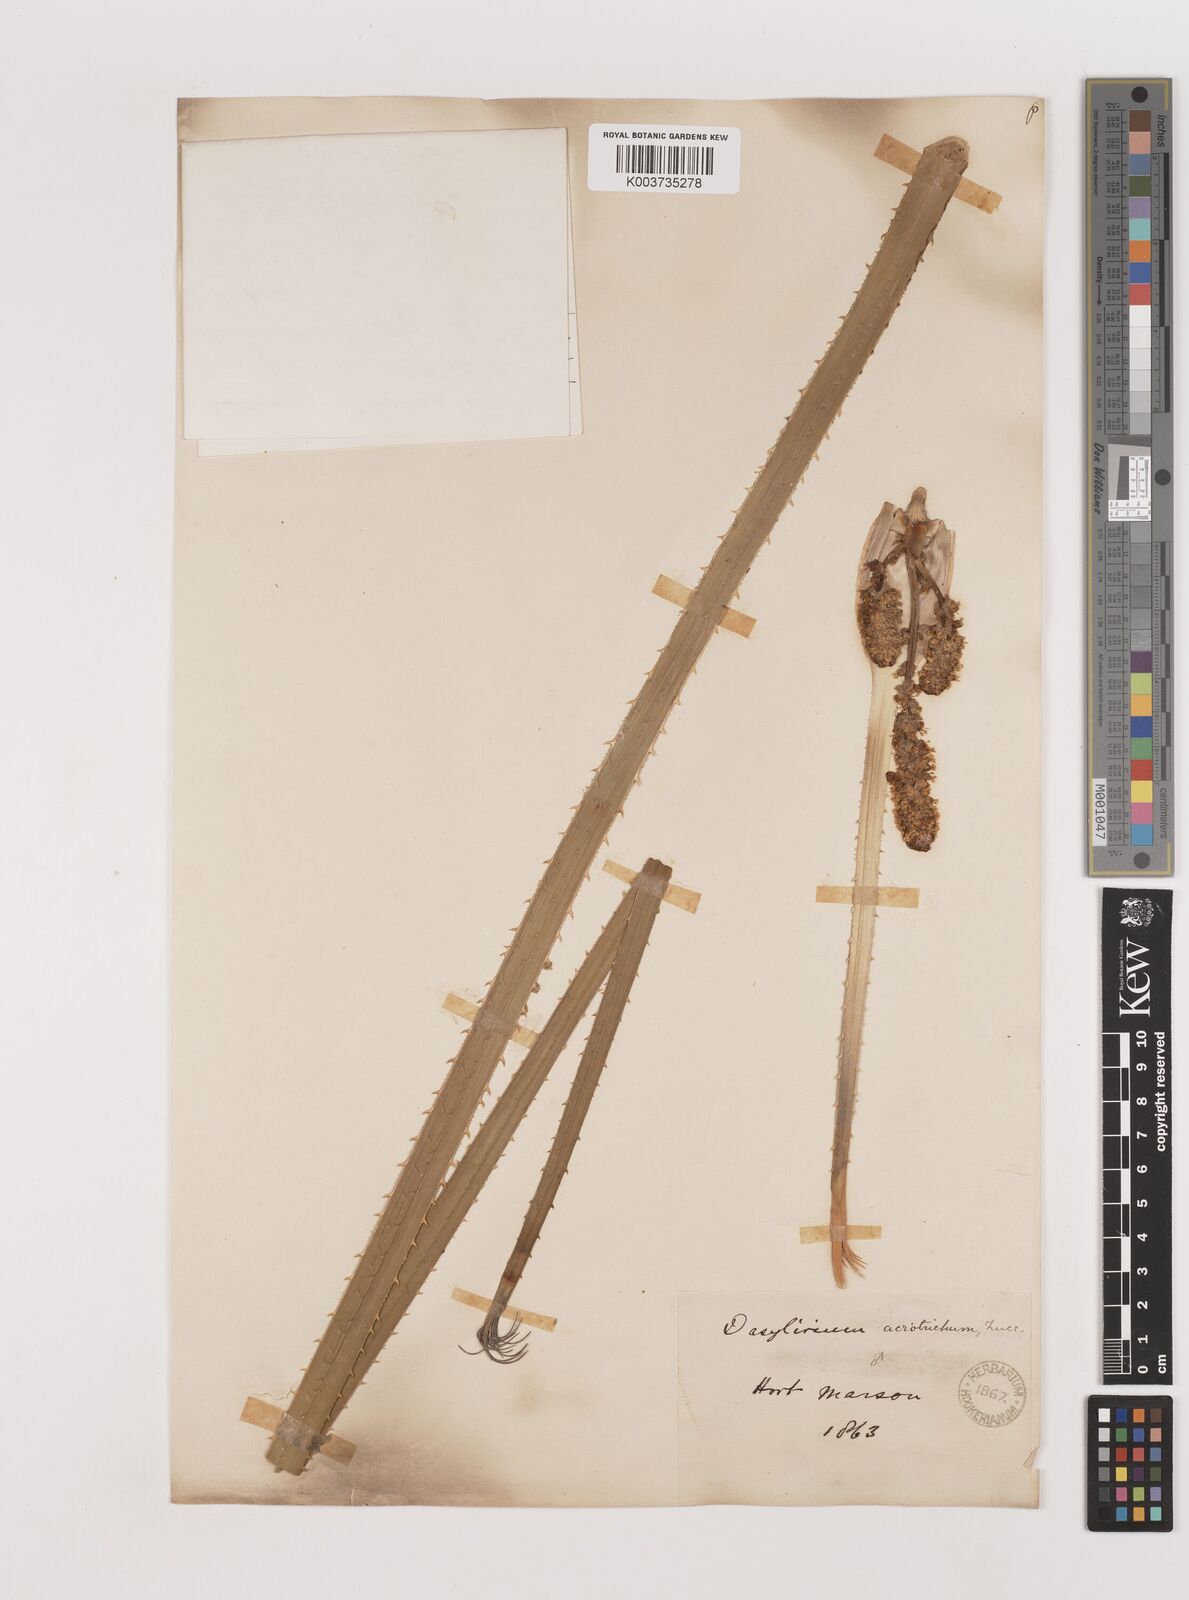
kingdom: Plantae
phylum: Tracheophyta
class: Liliopsida
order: Asparagales
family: Asparagaceae
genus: Dasylirion
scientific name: Dasylirion acrotrichum
